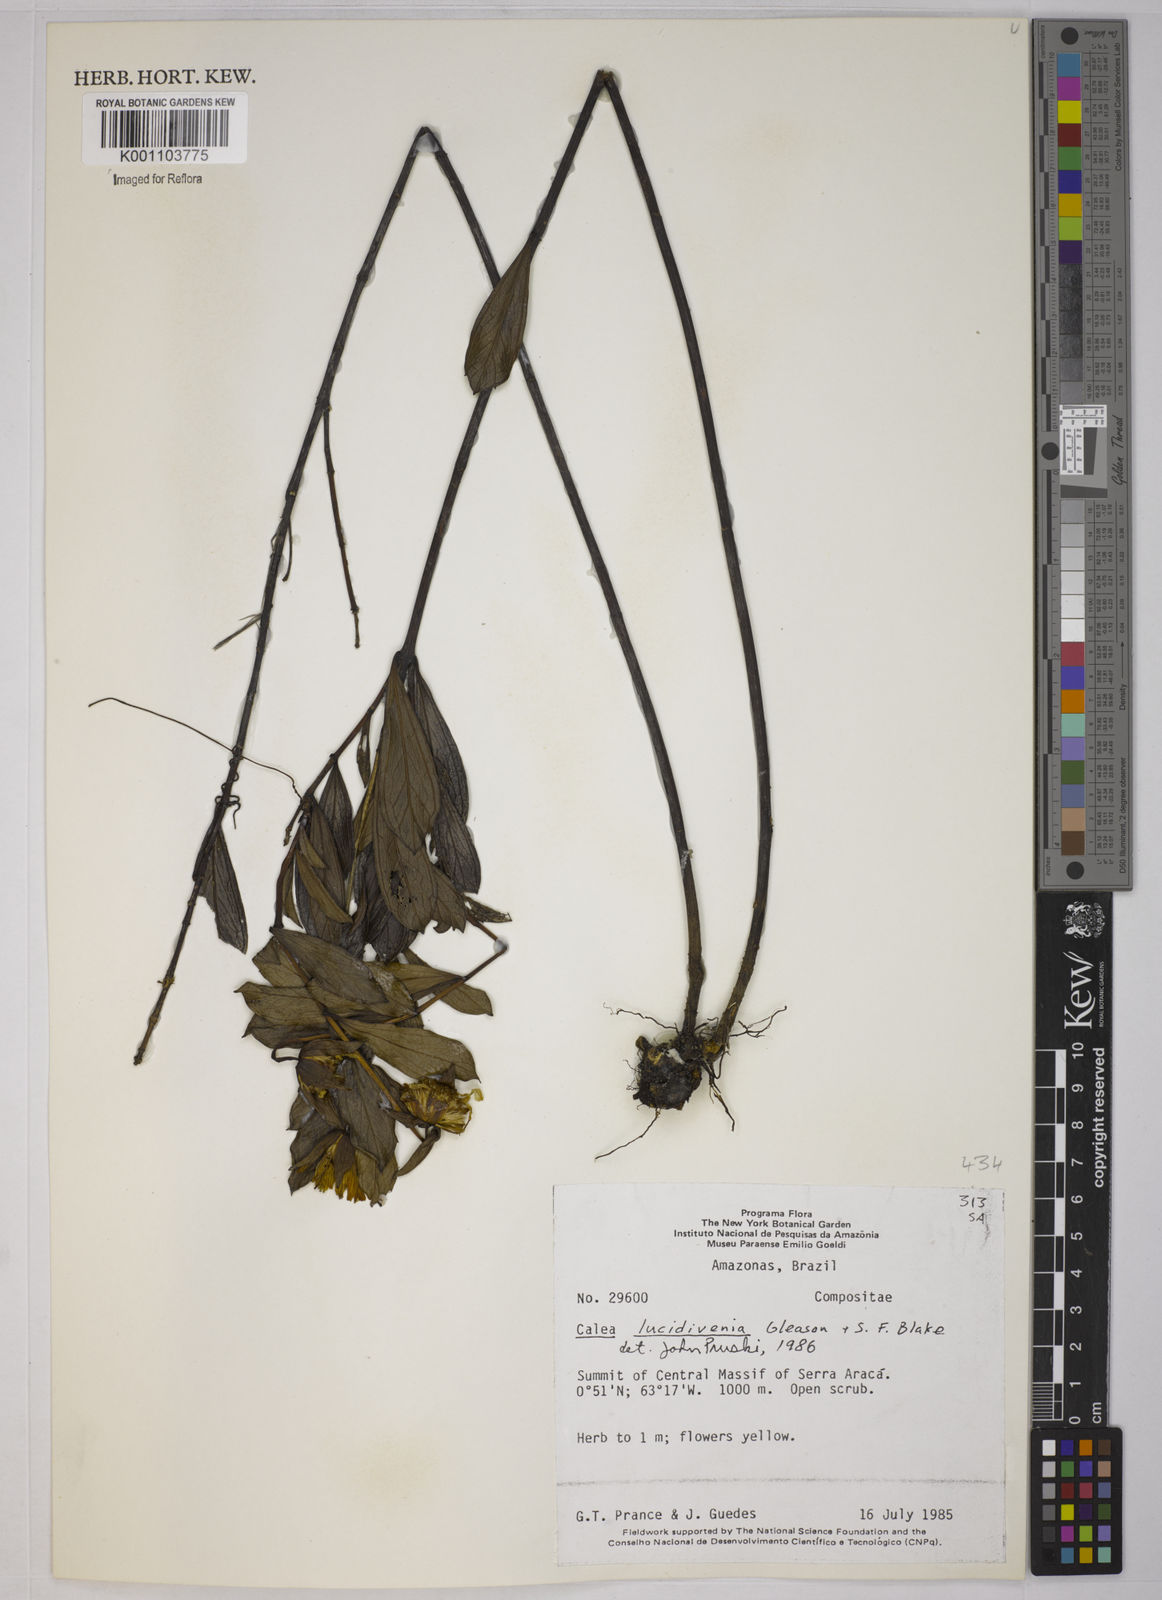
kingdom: Plantae
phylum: Tracheophyta
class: Magnoliopsida
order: Asterales
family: Asteraceae
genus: Calea
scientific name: Calea lucidivenia
